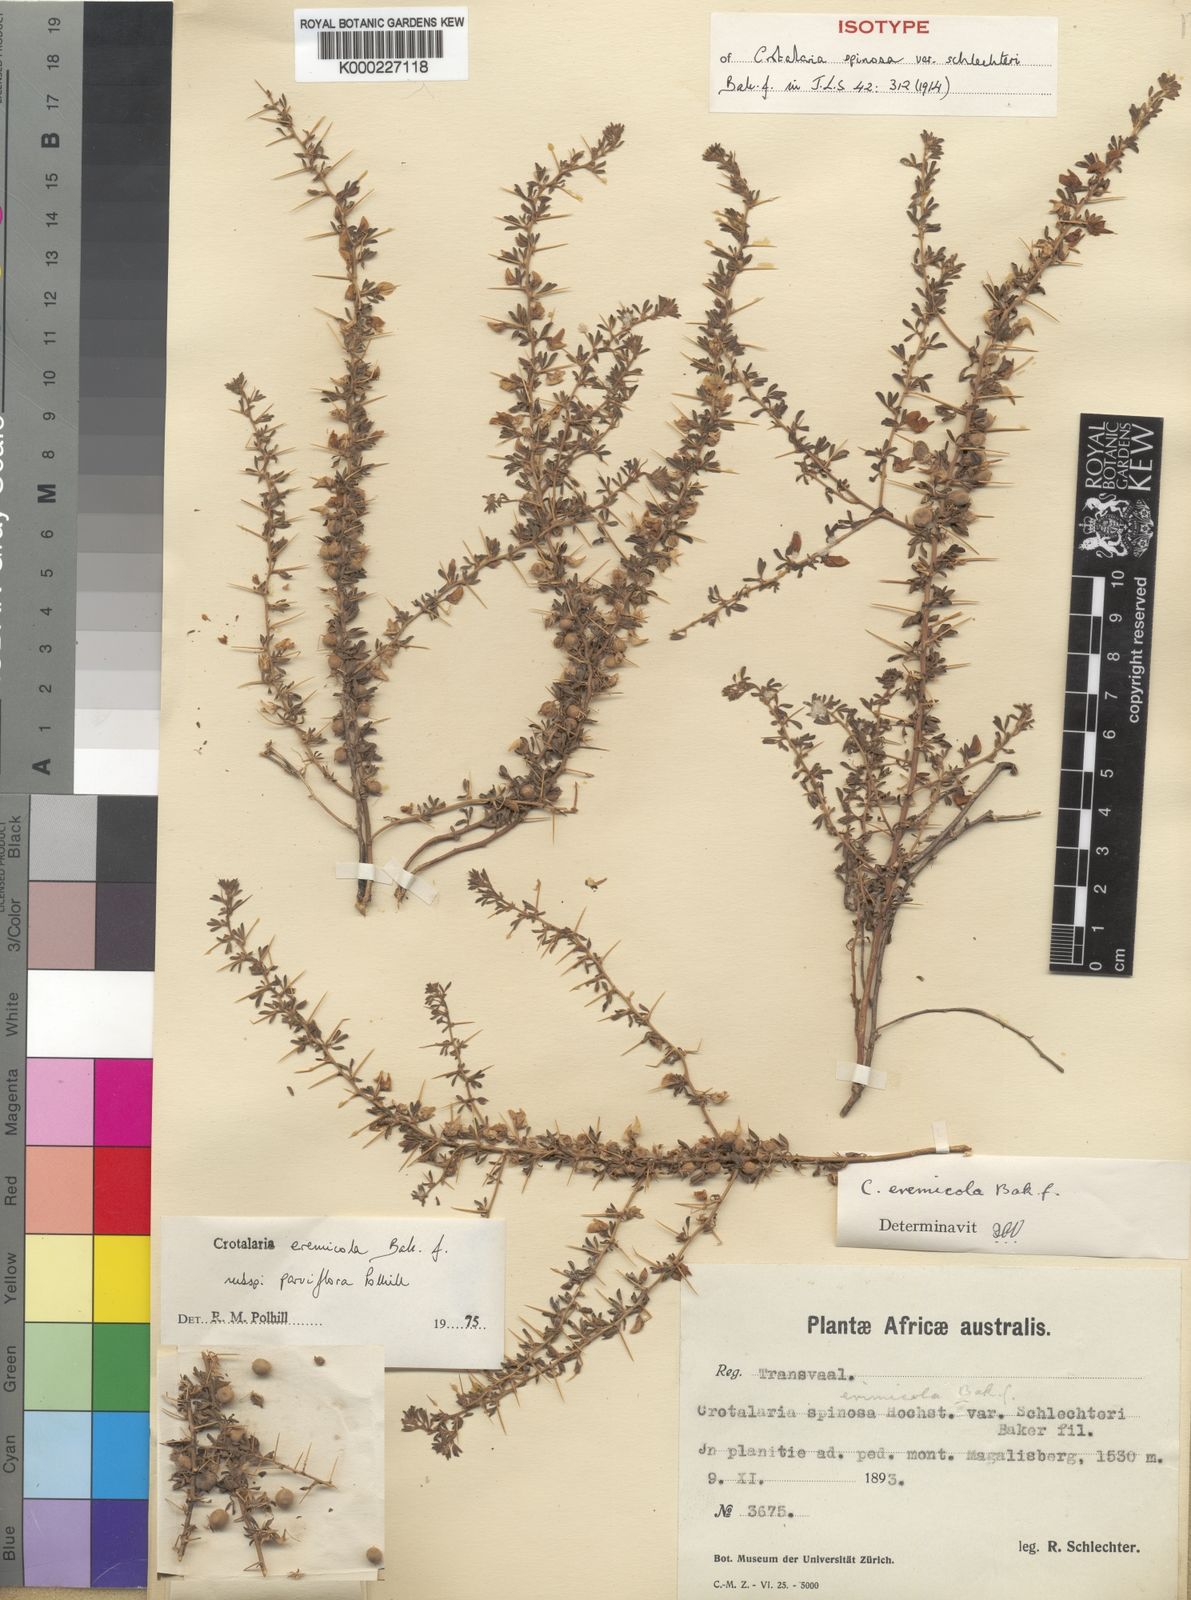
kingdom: Plantae
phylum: Tracheophyta
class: Magnoliopsida
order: Fabales
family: Fabaceae
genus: Crotalaria
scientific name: Crotalaria eremicola
